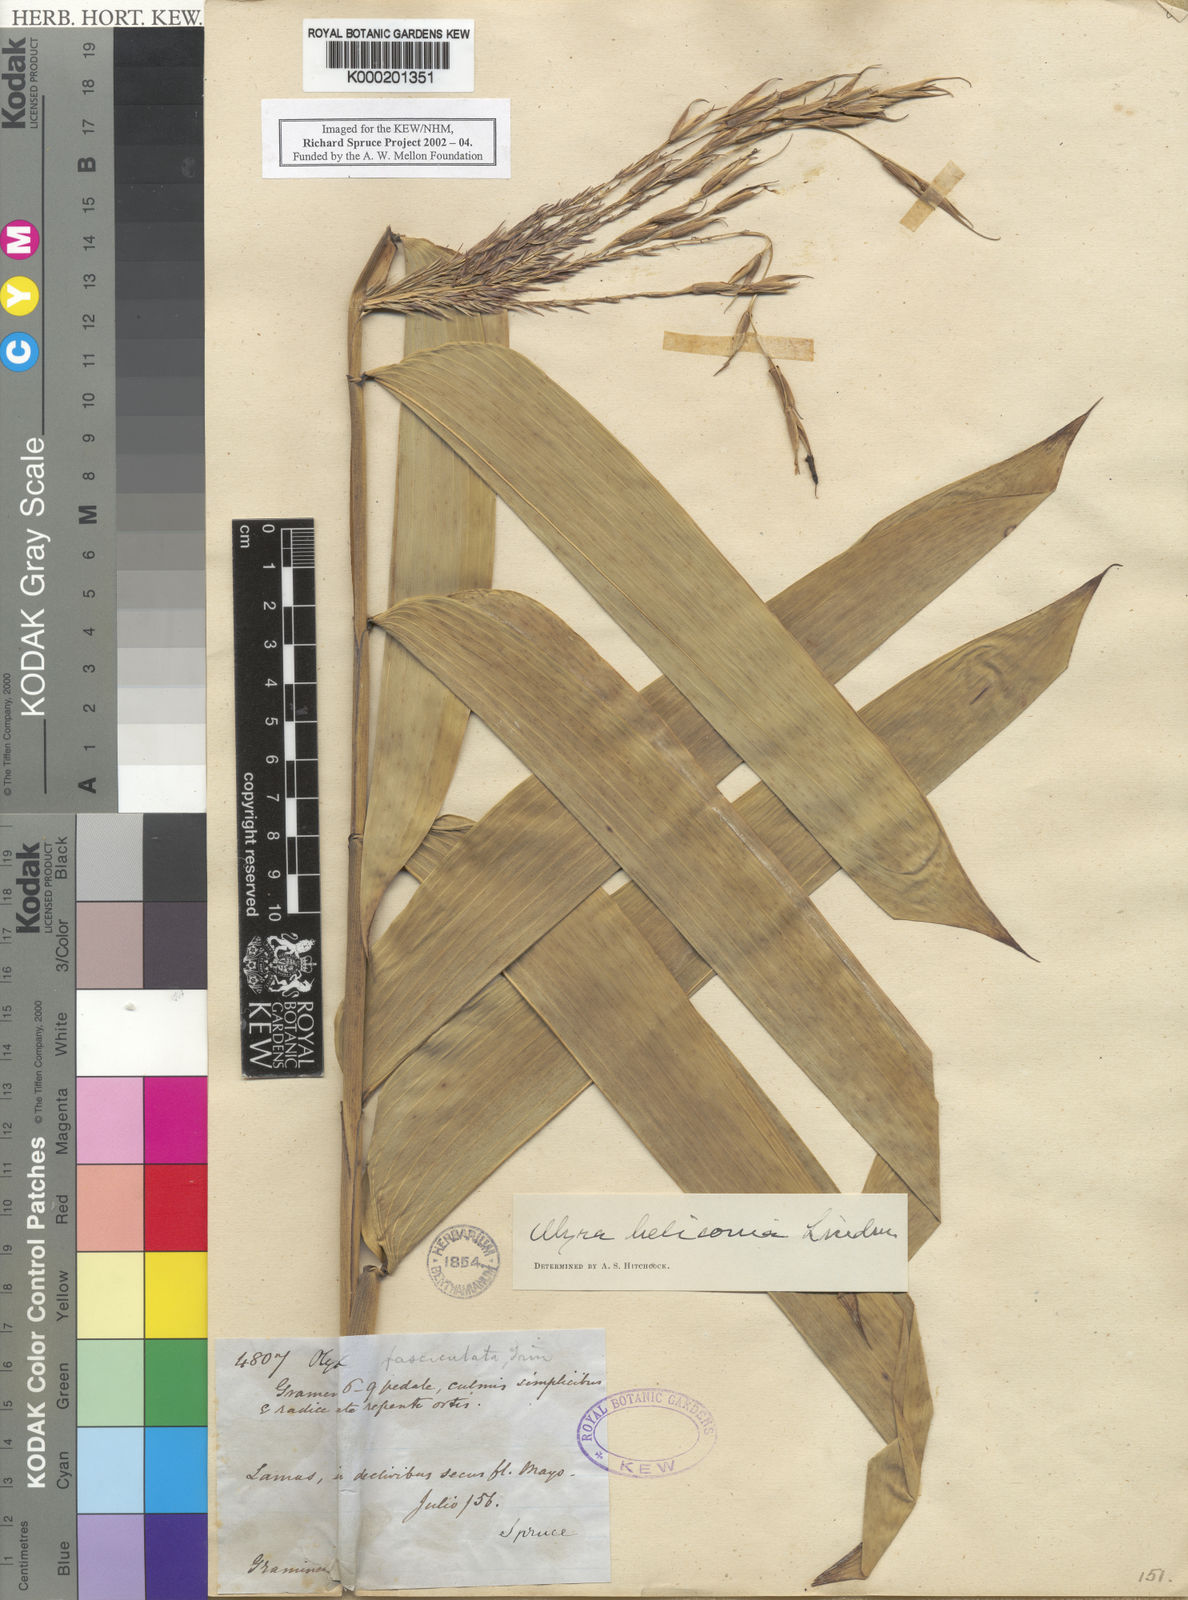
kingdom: Plantae
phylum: Tracheophyta
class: Liliopsida
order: Poales
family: Poaceae
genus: Olyra
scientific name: Olyra fasciculata
